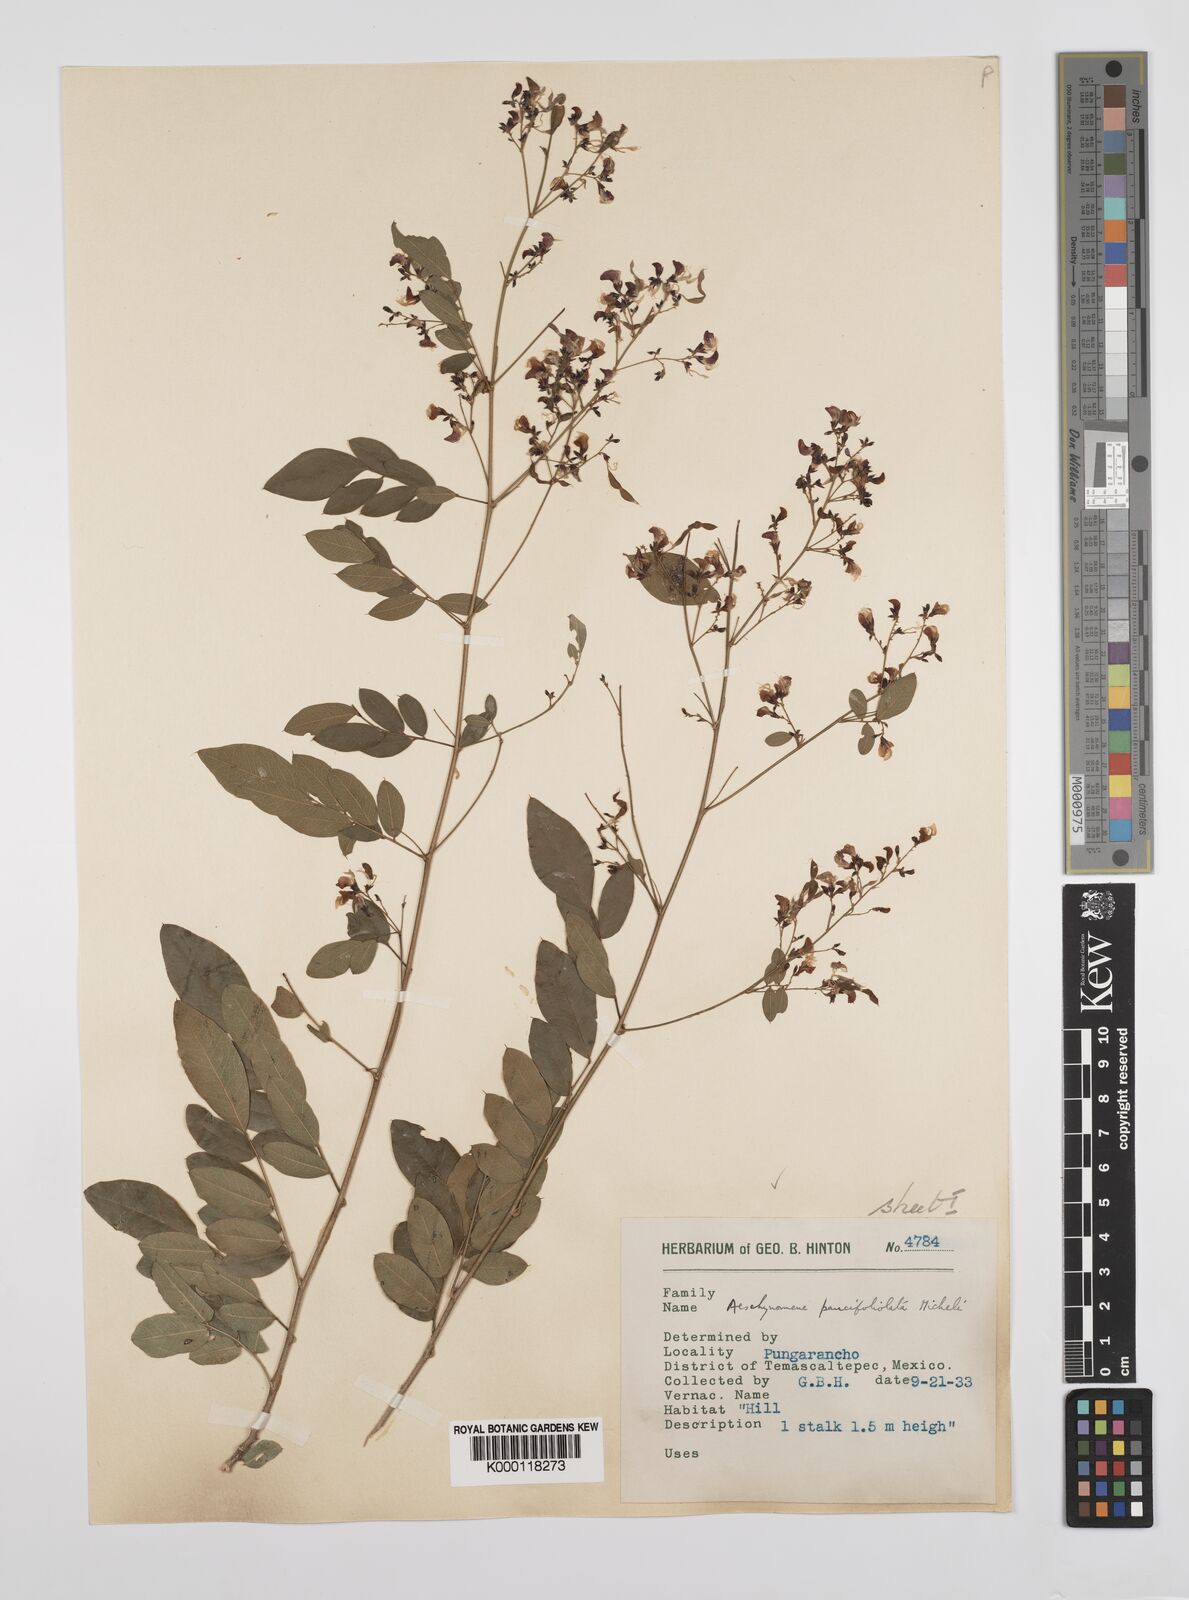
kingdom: Plantae
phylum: Tracheophyta
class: Magnoliopsida
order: Fabales
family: Fabaceae
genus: Ctenodon
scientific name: Ctenodon paucifoliolatus
